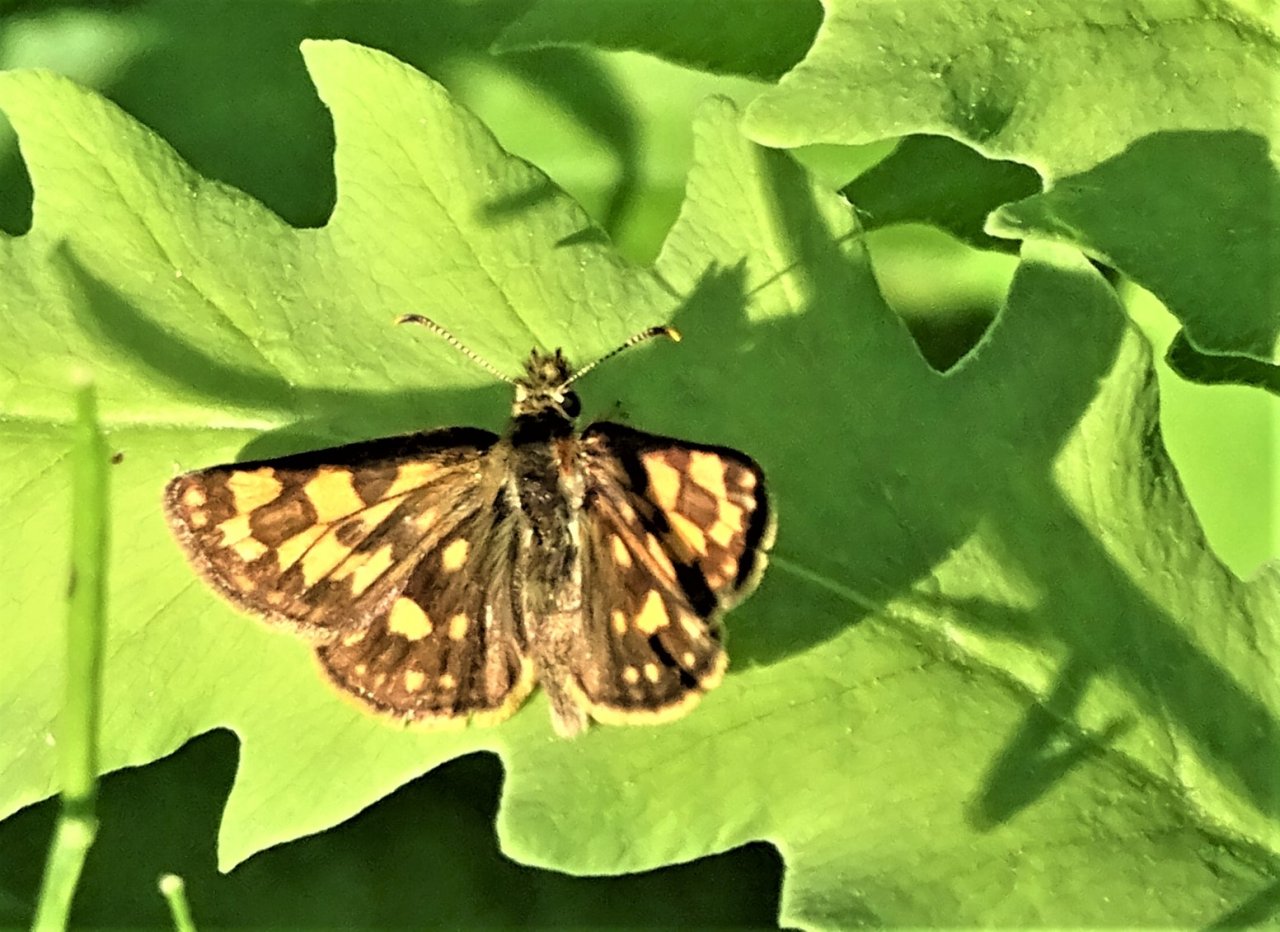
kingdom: Animalia
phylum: Arthropoda
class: Insecta
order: Lepidoptera
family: Hesperiidae
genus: Carterocephalus
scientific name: Carterocephalus palaemon
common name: Chequered Skipper
